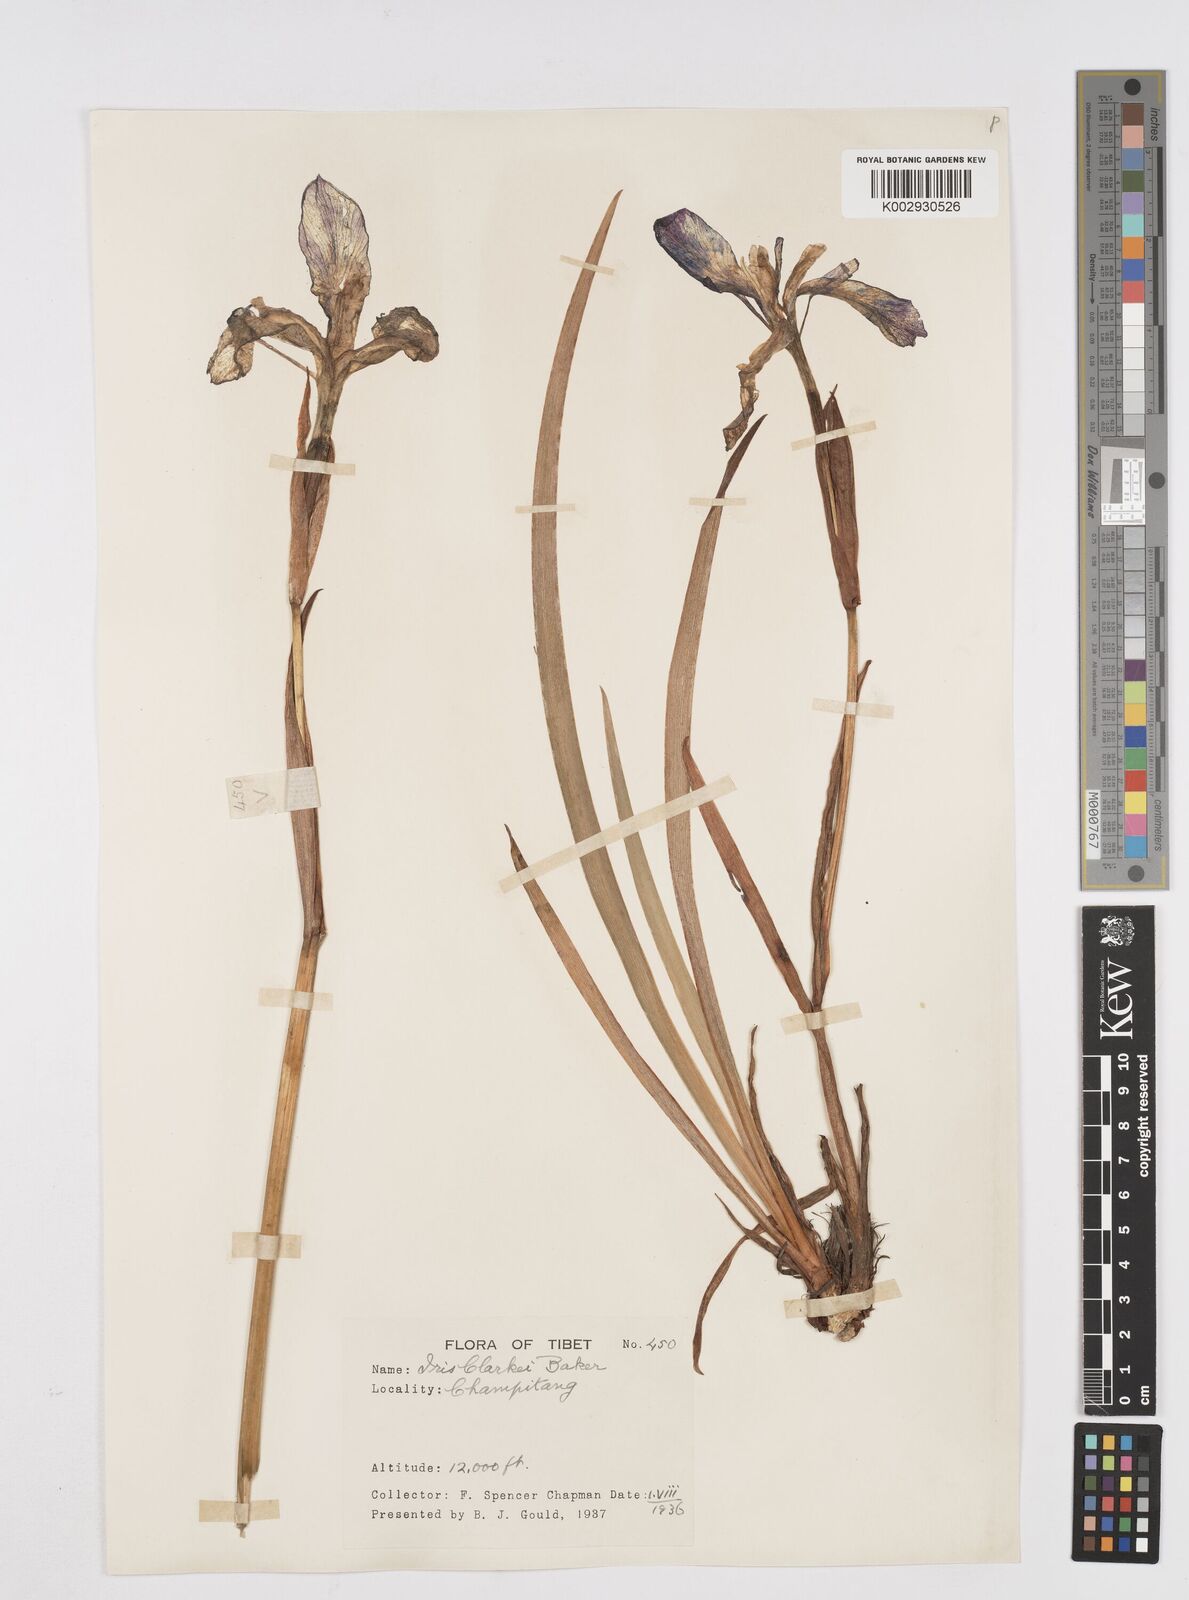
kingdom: Plantae
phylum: Tracheophyta
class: Liliopsida
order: Asparagales
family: Iridaceae
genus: Iris
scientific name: Iris clarkei
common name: Tibet iris
